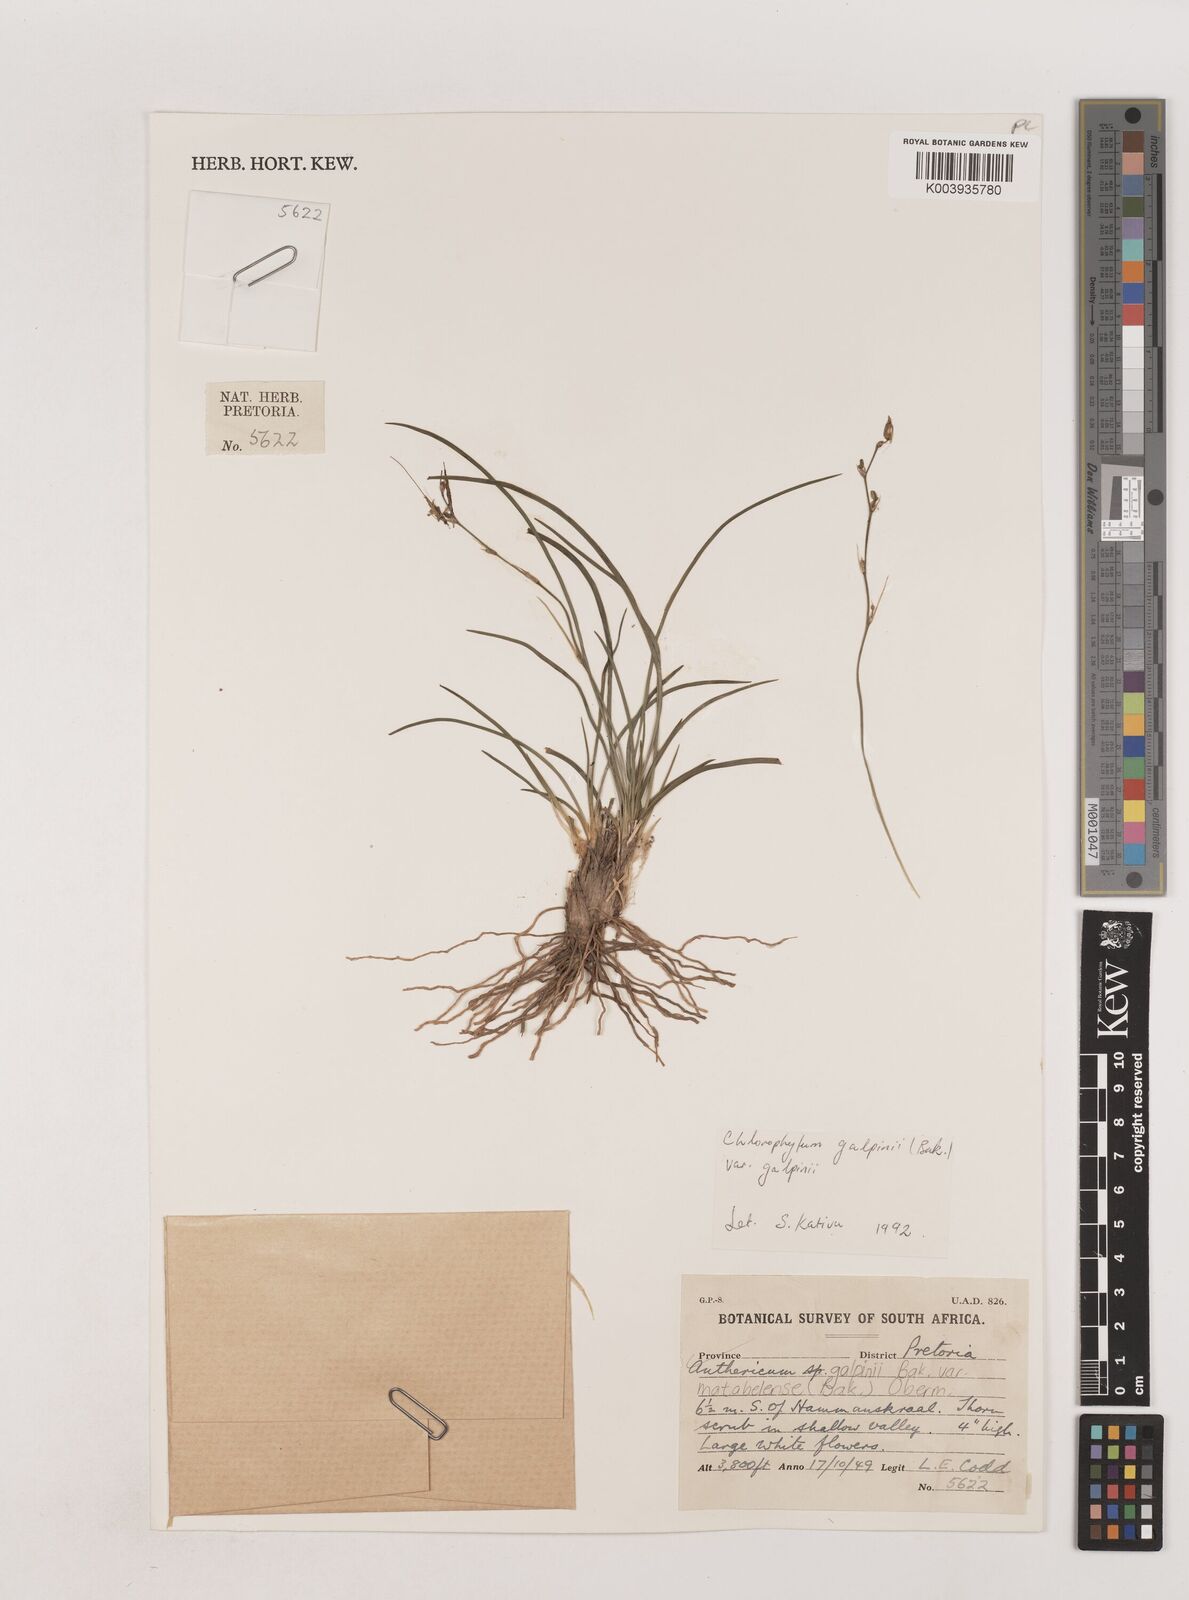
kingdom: Plantae
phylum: Tracheophyta
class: Liliopsida
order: Asparagales
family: Asparagaceae
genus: Chlorophytum
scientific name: Chlorophytum galpinii
